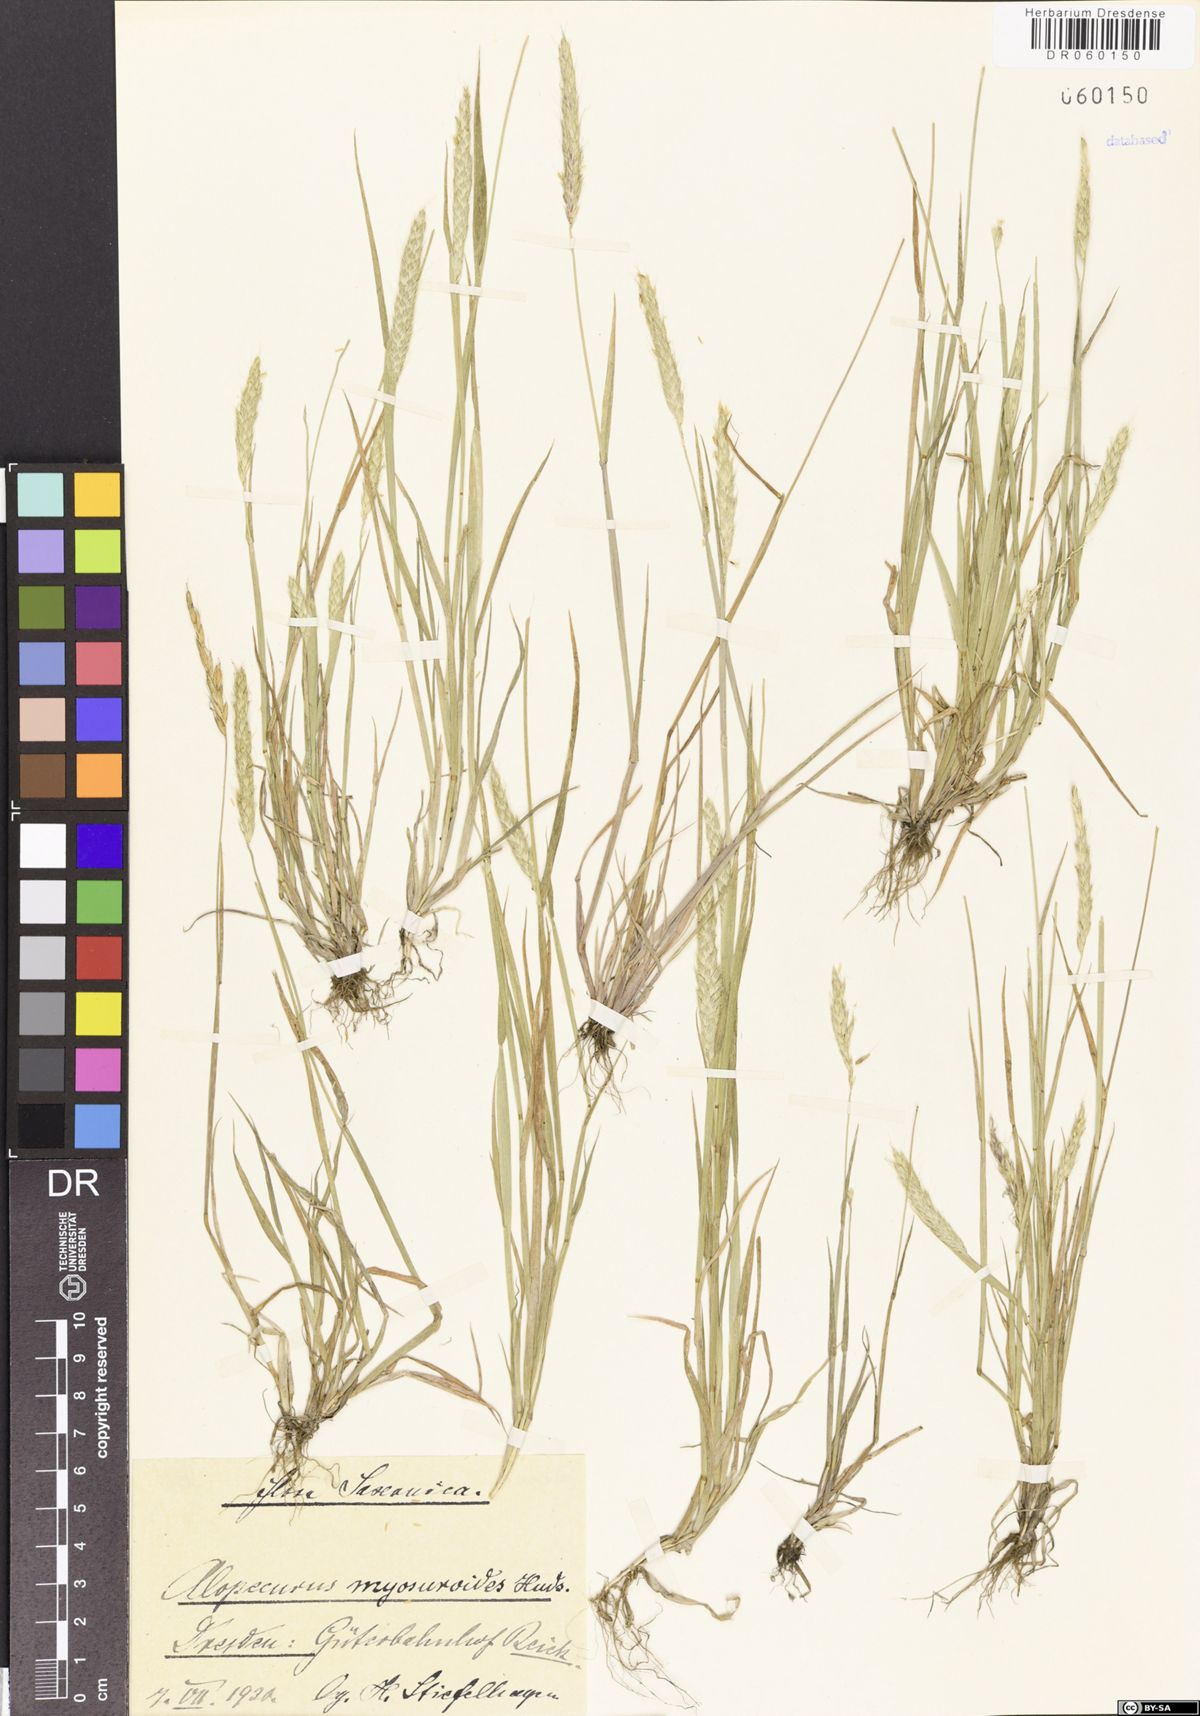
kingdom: Plantae
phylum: Tracheophyta
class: Liliopsida
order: Poales
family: Poaceae
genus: Alopecurus
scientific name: Alopecurus myosuroides
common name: Black-grass
